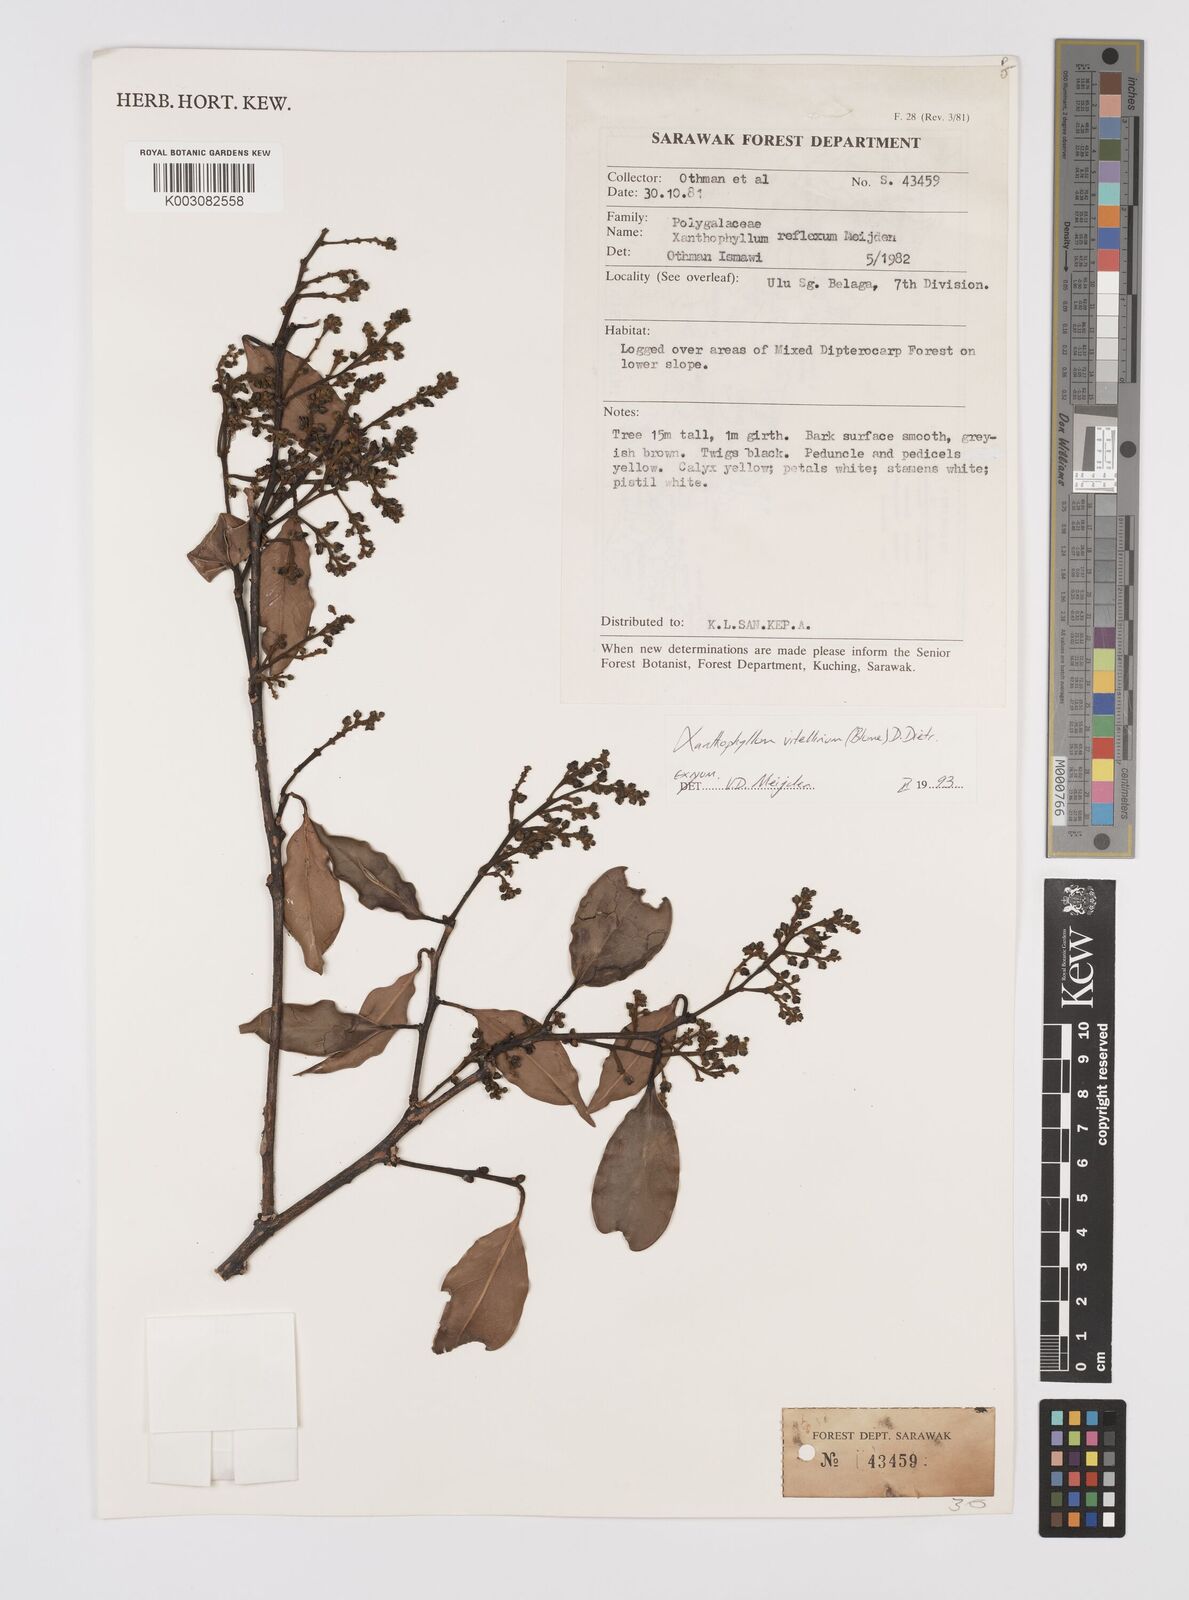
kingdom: Plantae
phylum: Tracheophyta
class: Magnoliopsida
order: Fabales
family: Polygalaceae
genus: Xanthophyllum
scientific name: Xanthophyllum vitellinum
